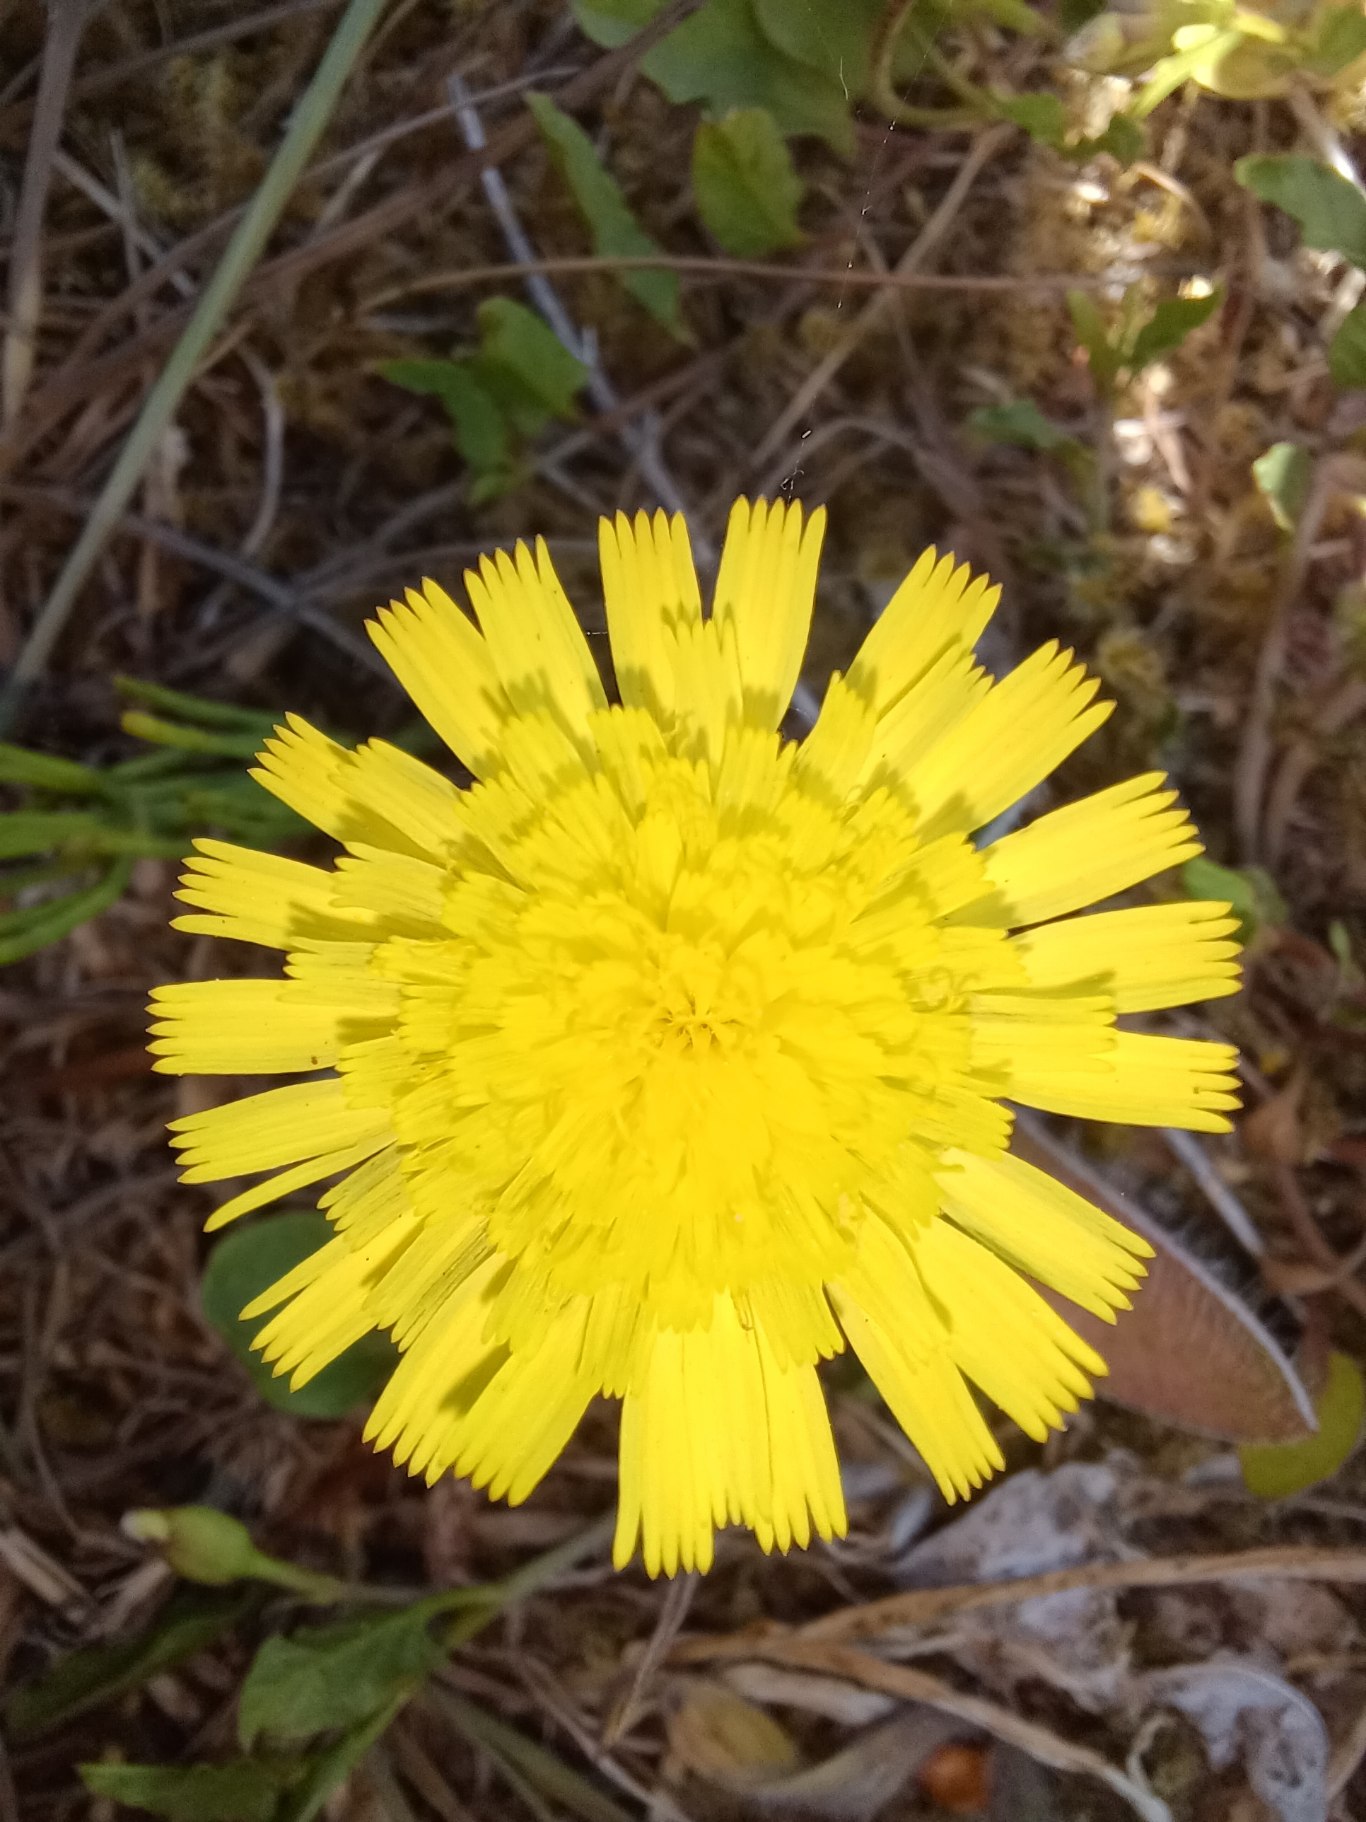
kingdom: Plantae
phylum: Tracheophyta
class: Magnoliopsida
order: Asterales
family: Asteraceae
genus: Pilosella
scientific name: Pilosella officinarum
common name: Håret høgeurt
